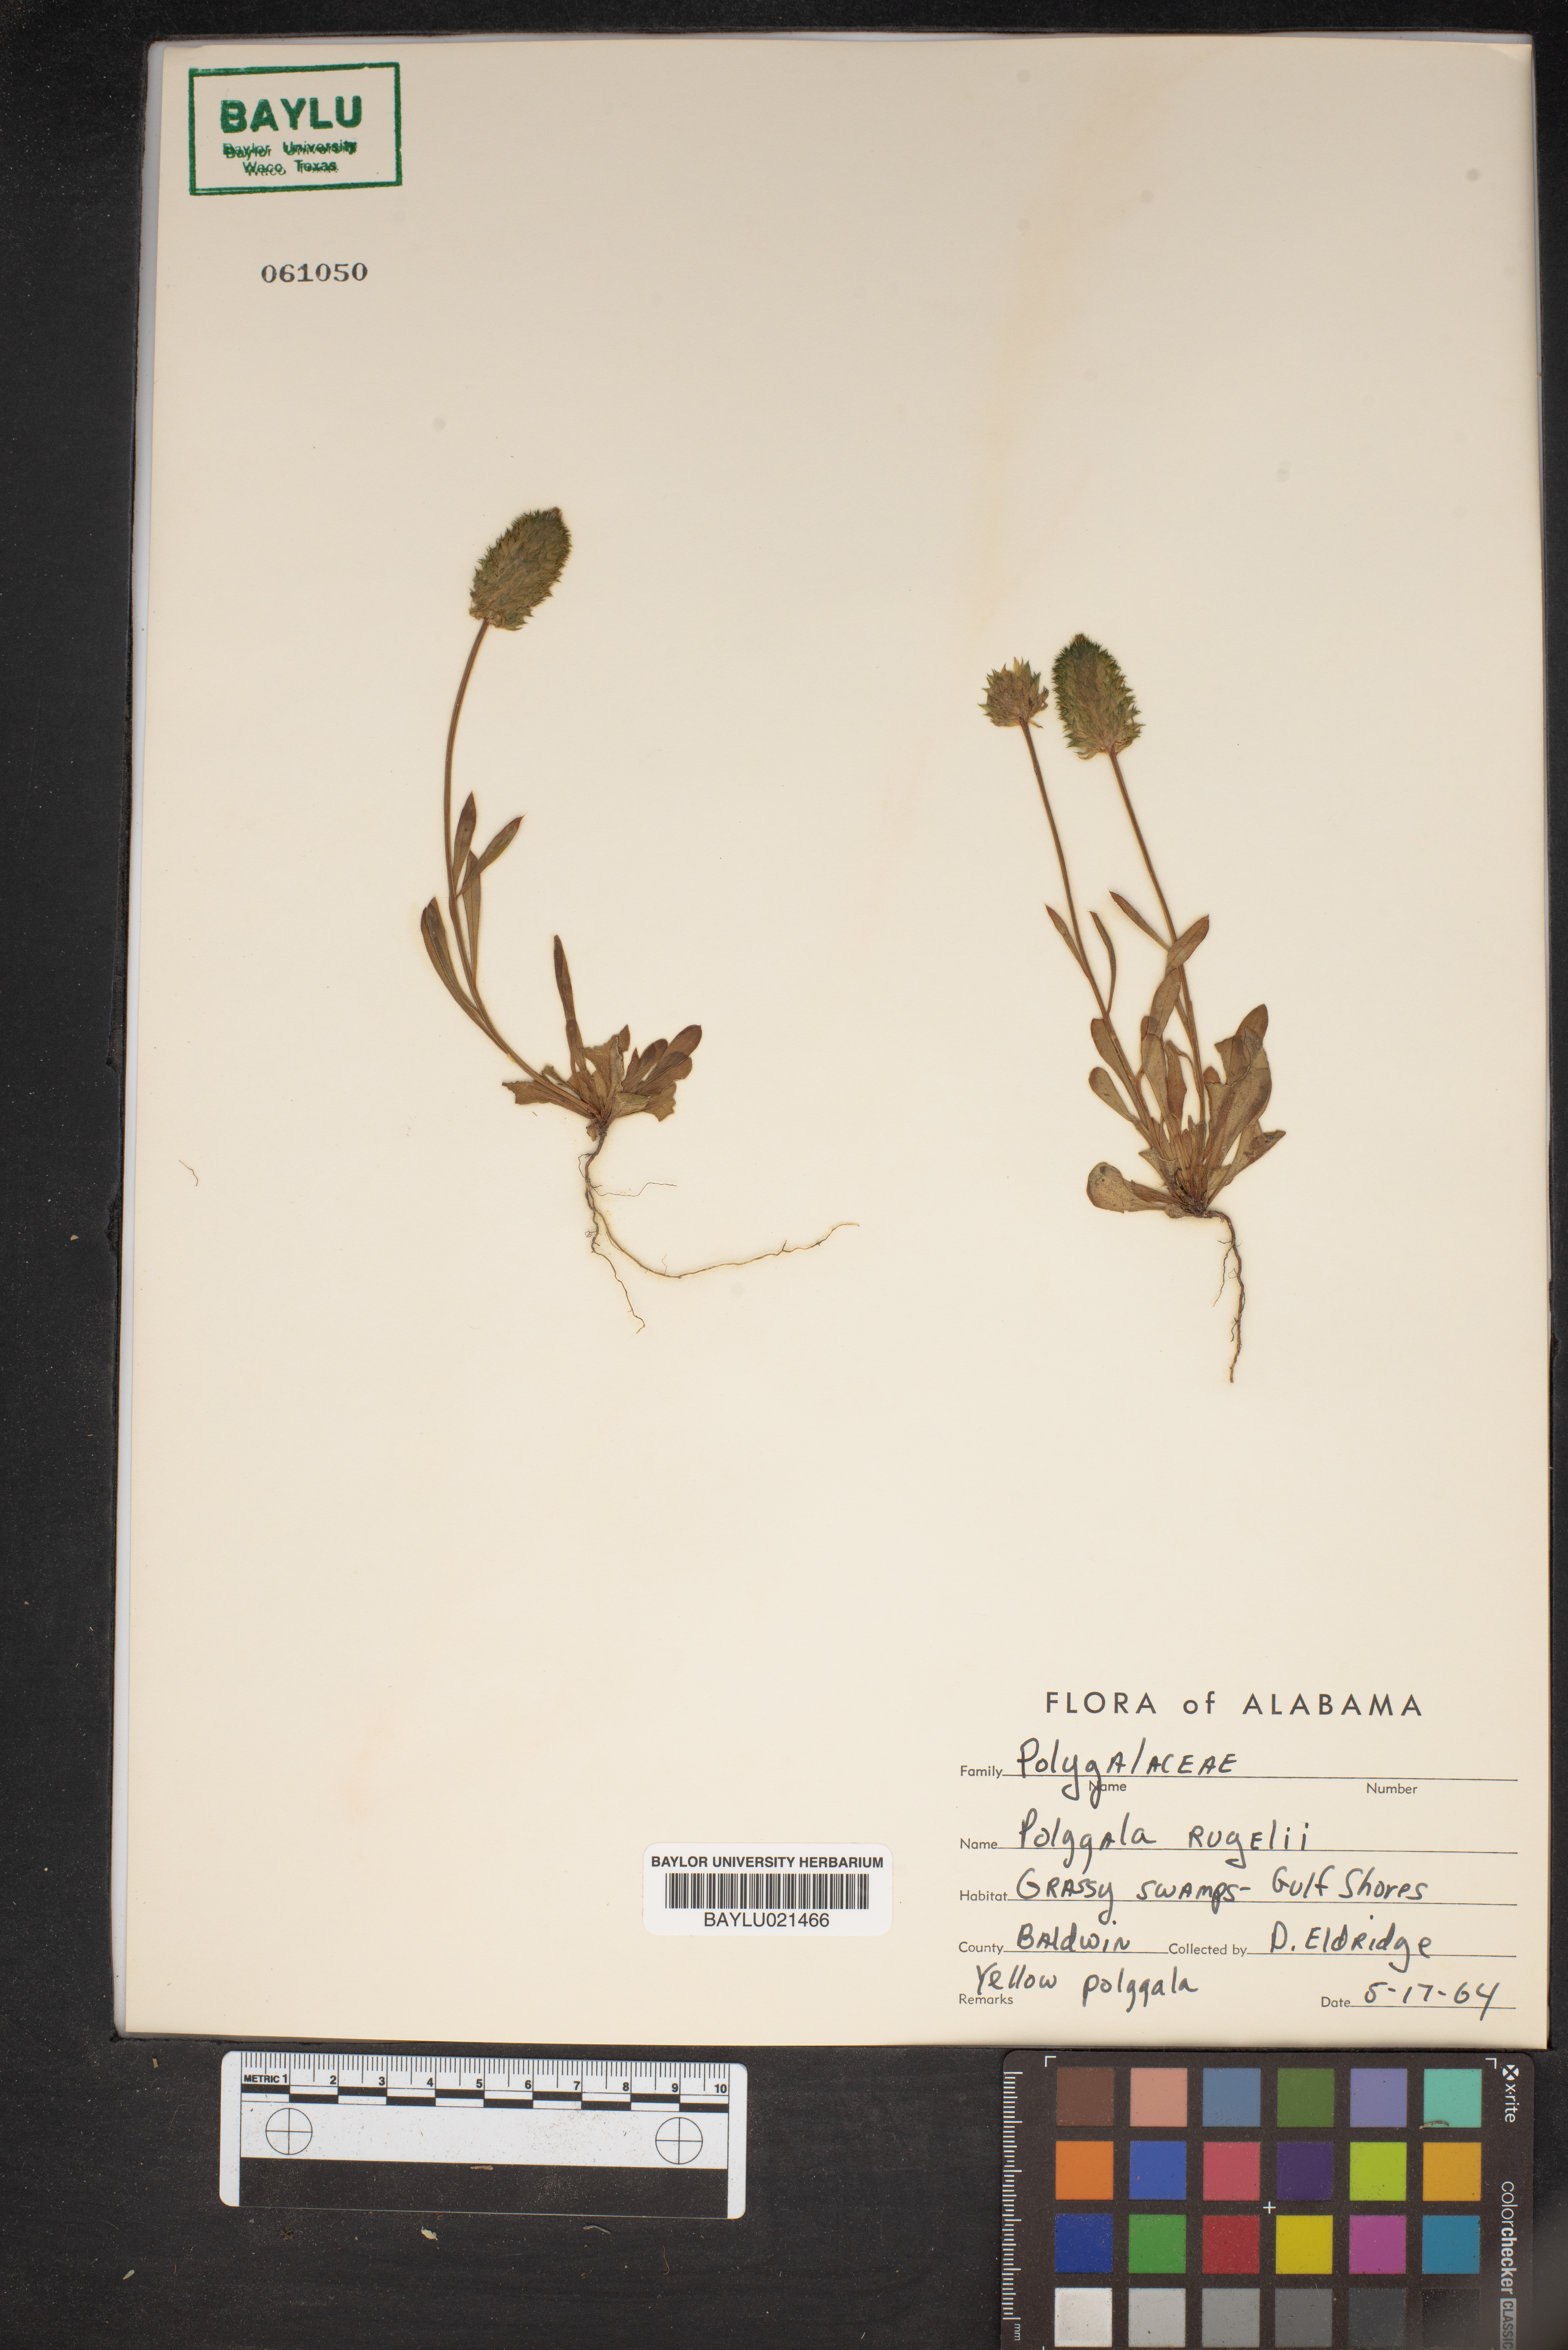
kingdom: Plantae
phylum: Tracheophyta
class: Magnoliopsida
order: Fabales
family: Polygalaceae
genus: Polygala
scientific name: Polygala rugelii
